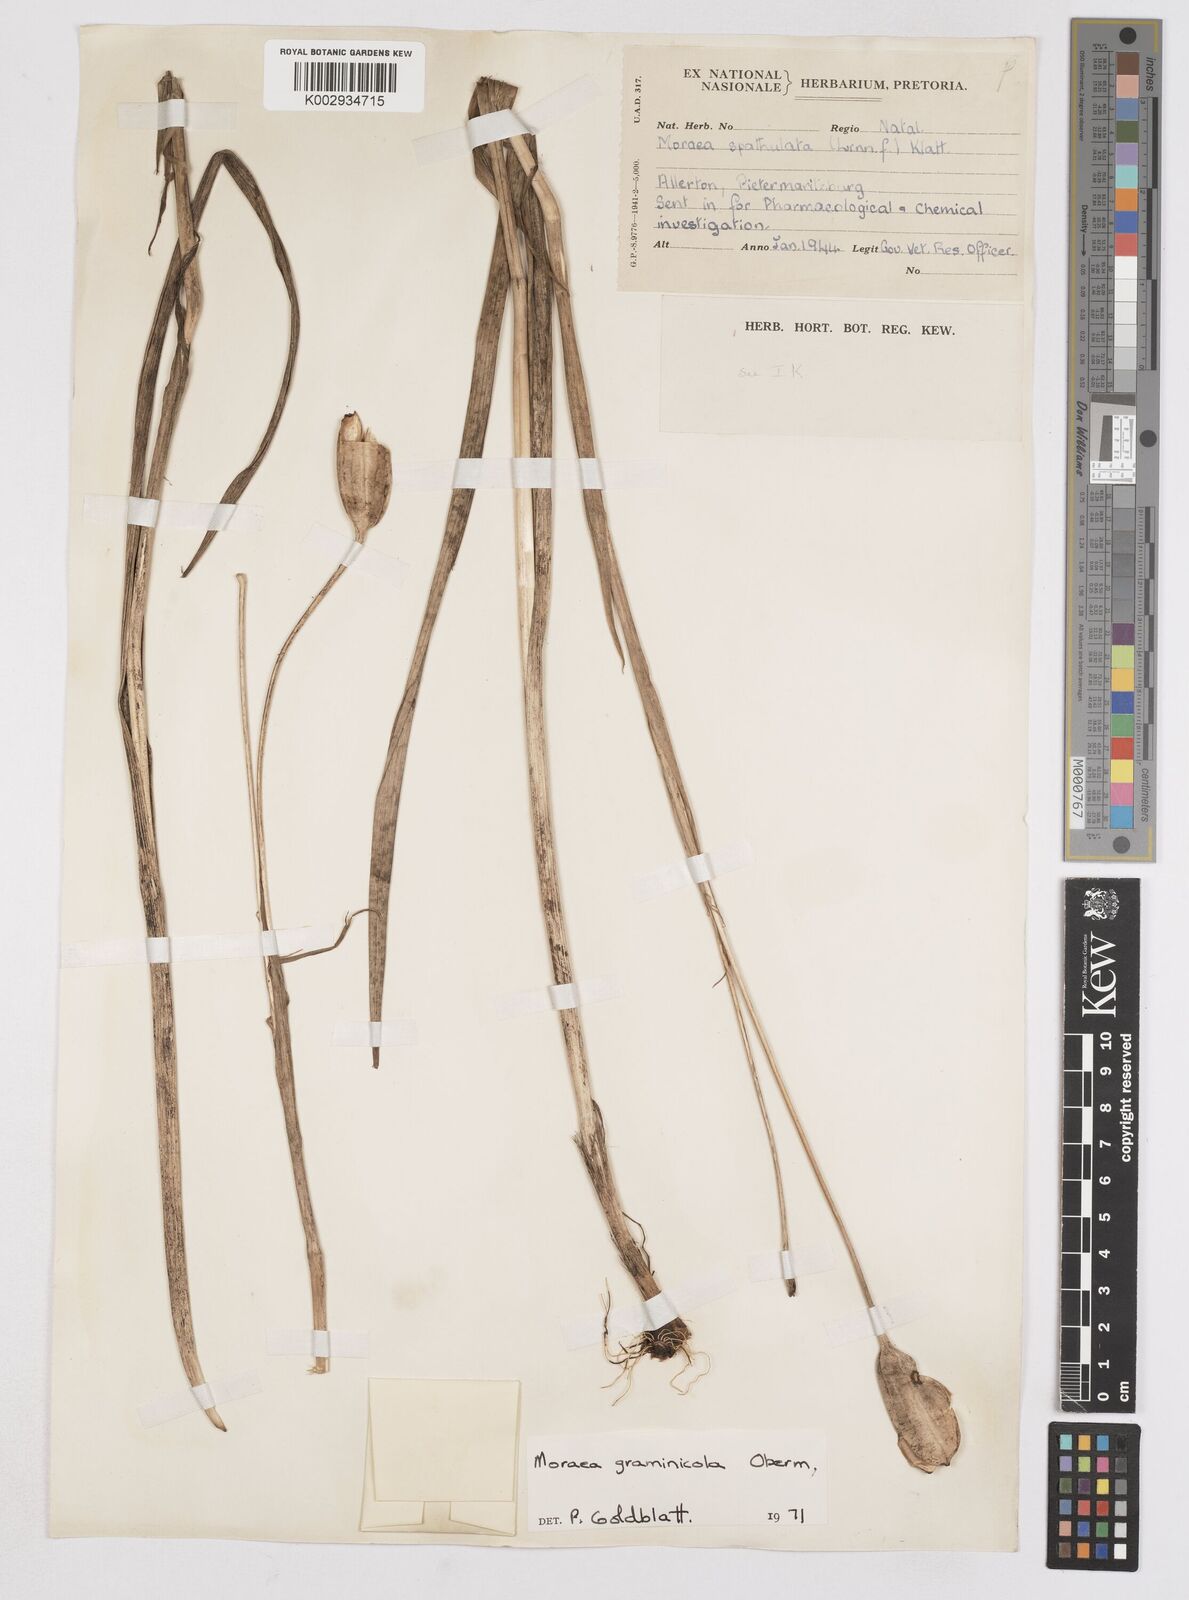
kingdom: Plantae
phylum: Tracheophyta
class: Liliopsida
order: Asparagales
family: Iridaceae
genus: Moraea
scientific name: Moraea graminicola
